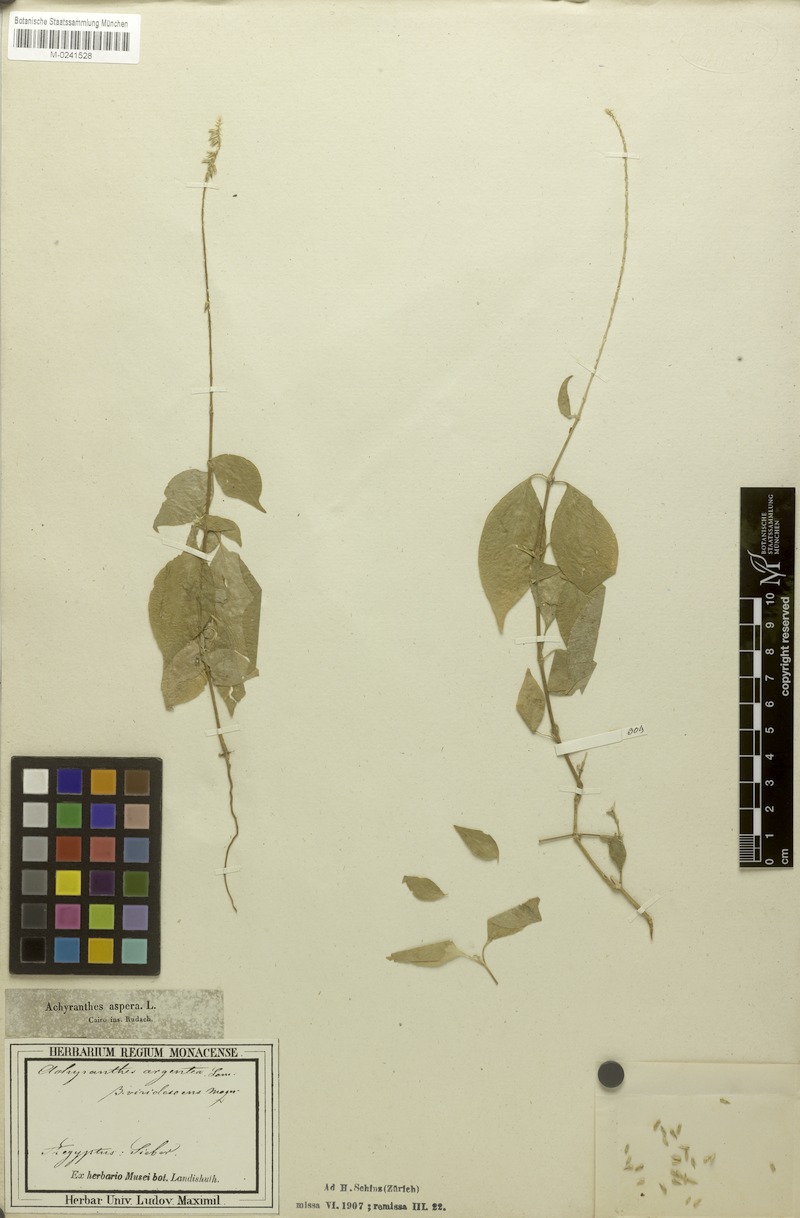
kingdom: Plantae
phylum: Tracheophyta
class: Magnoliopsida
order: Caryophyllales
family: Amaranthaceae
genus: Achyranthes
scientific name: Achyranthes aspera
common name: Devil's horsewhip
